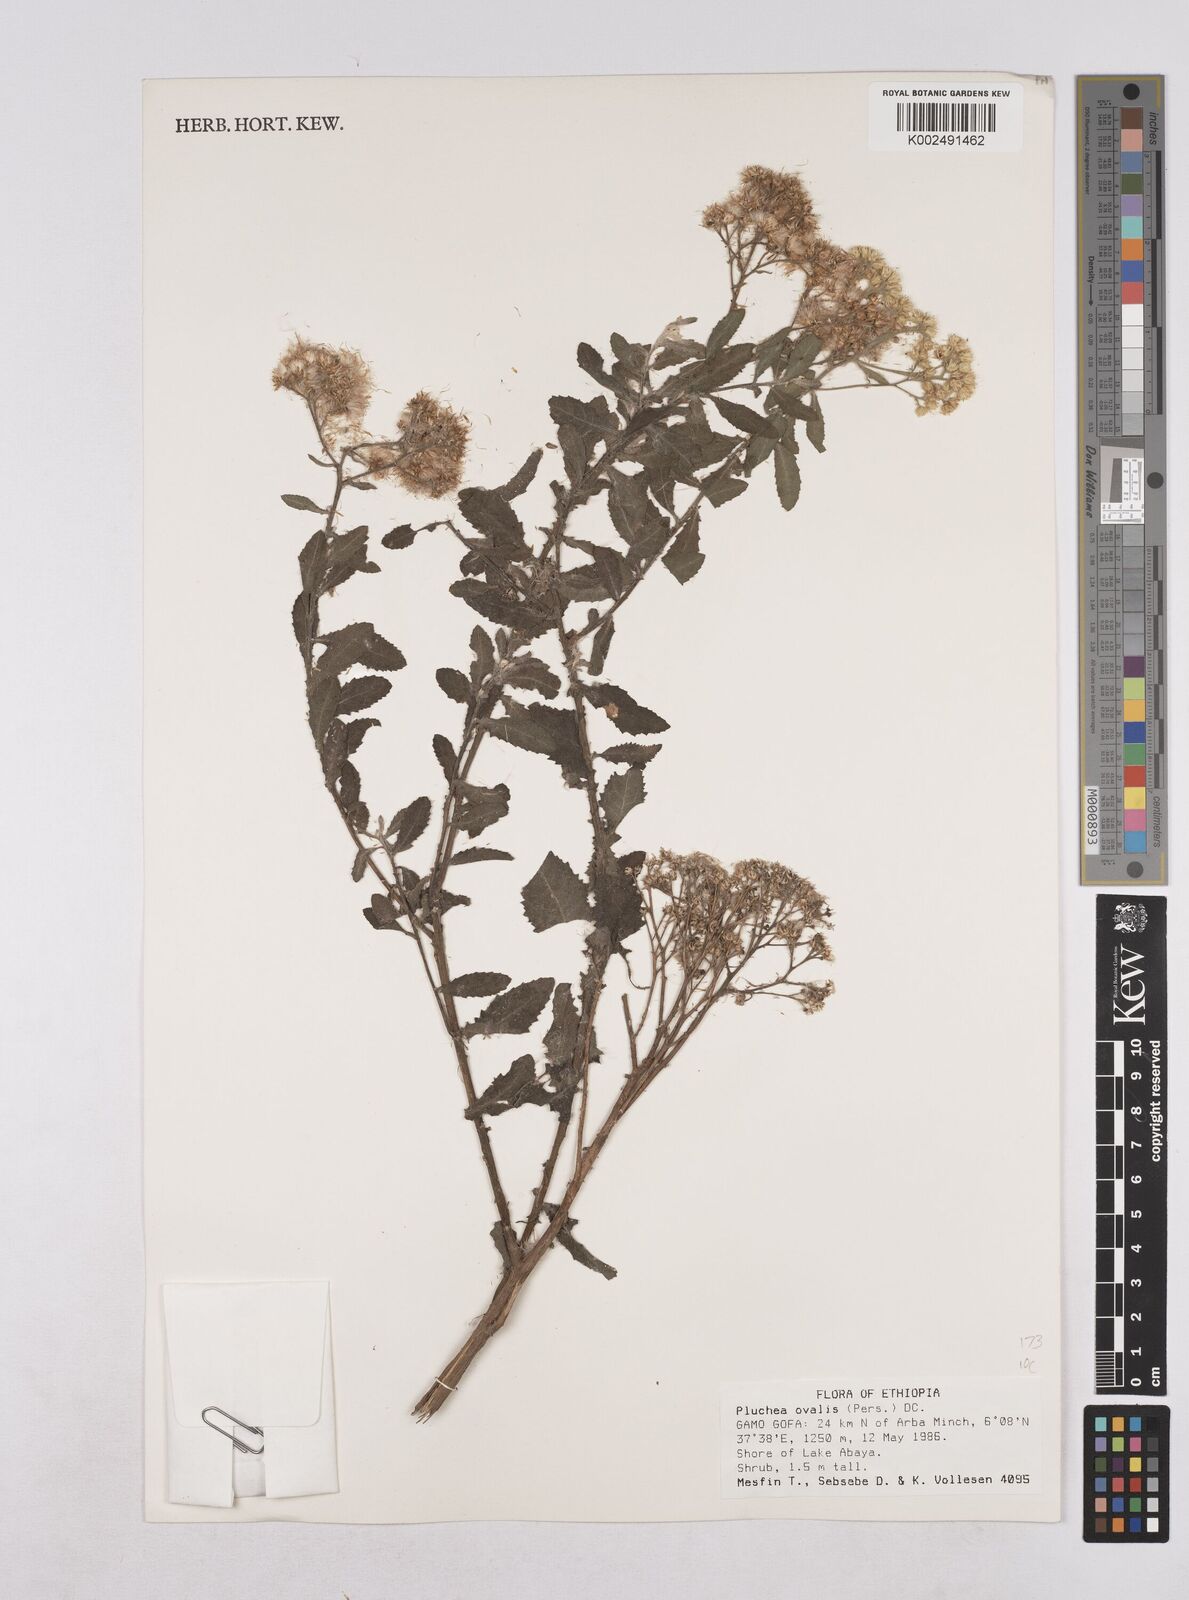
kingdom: Plantae
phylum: Tracheophyta
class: Magnoliopsida
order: Asterales
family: Asteraceae
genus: Pluchea
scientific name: Pluchea ovalis
